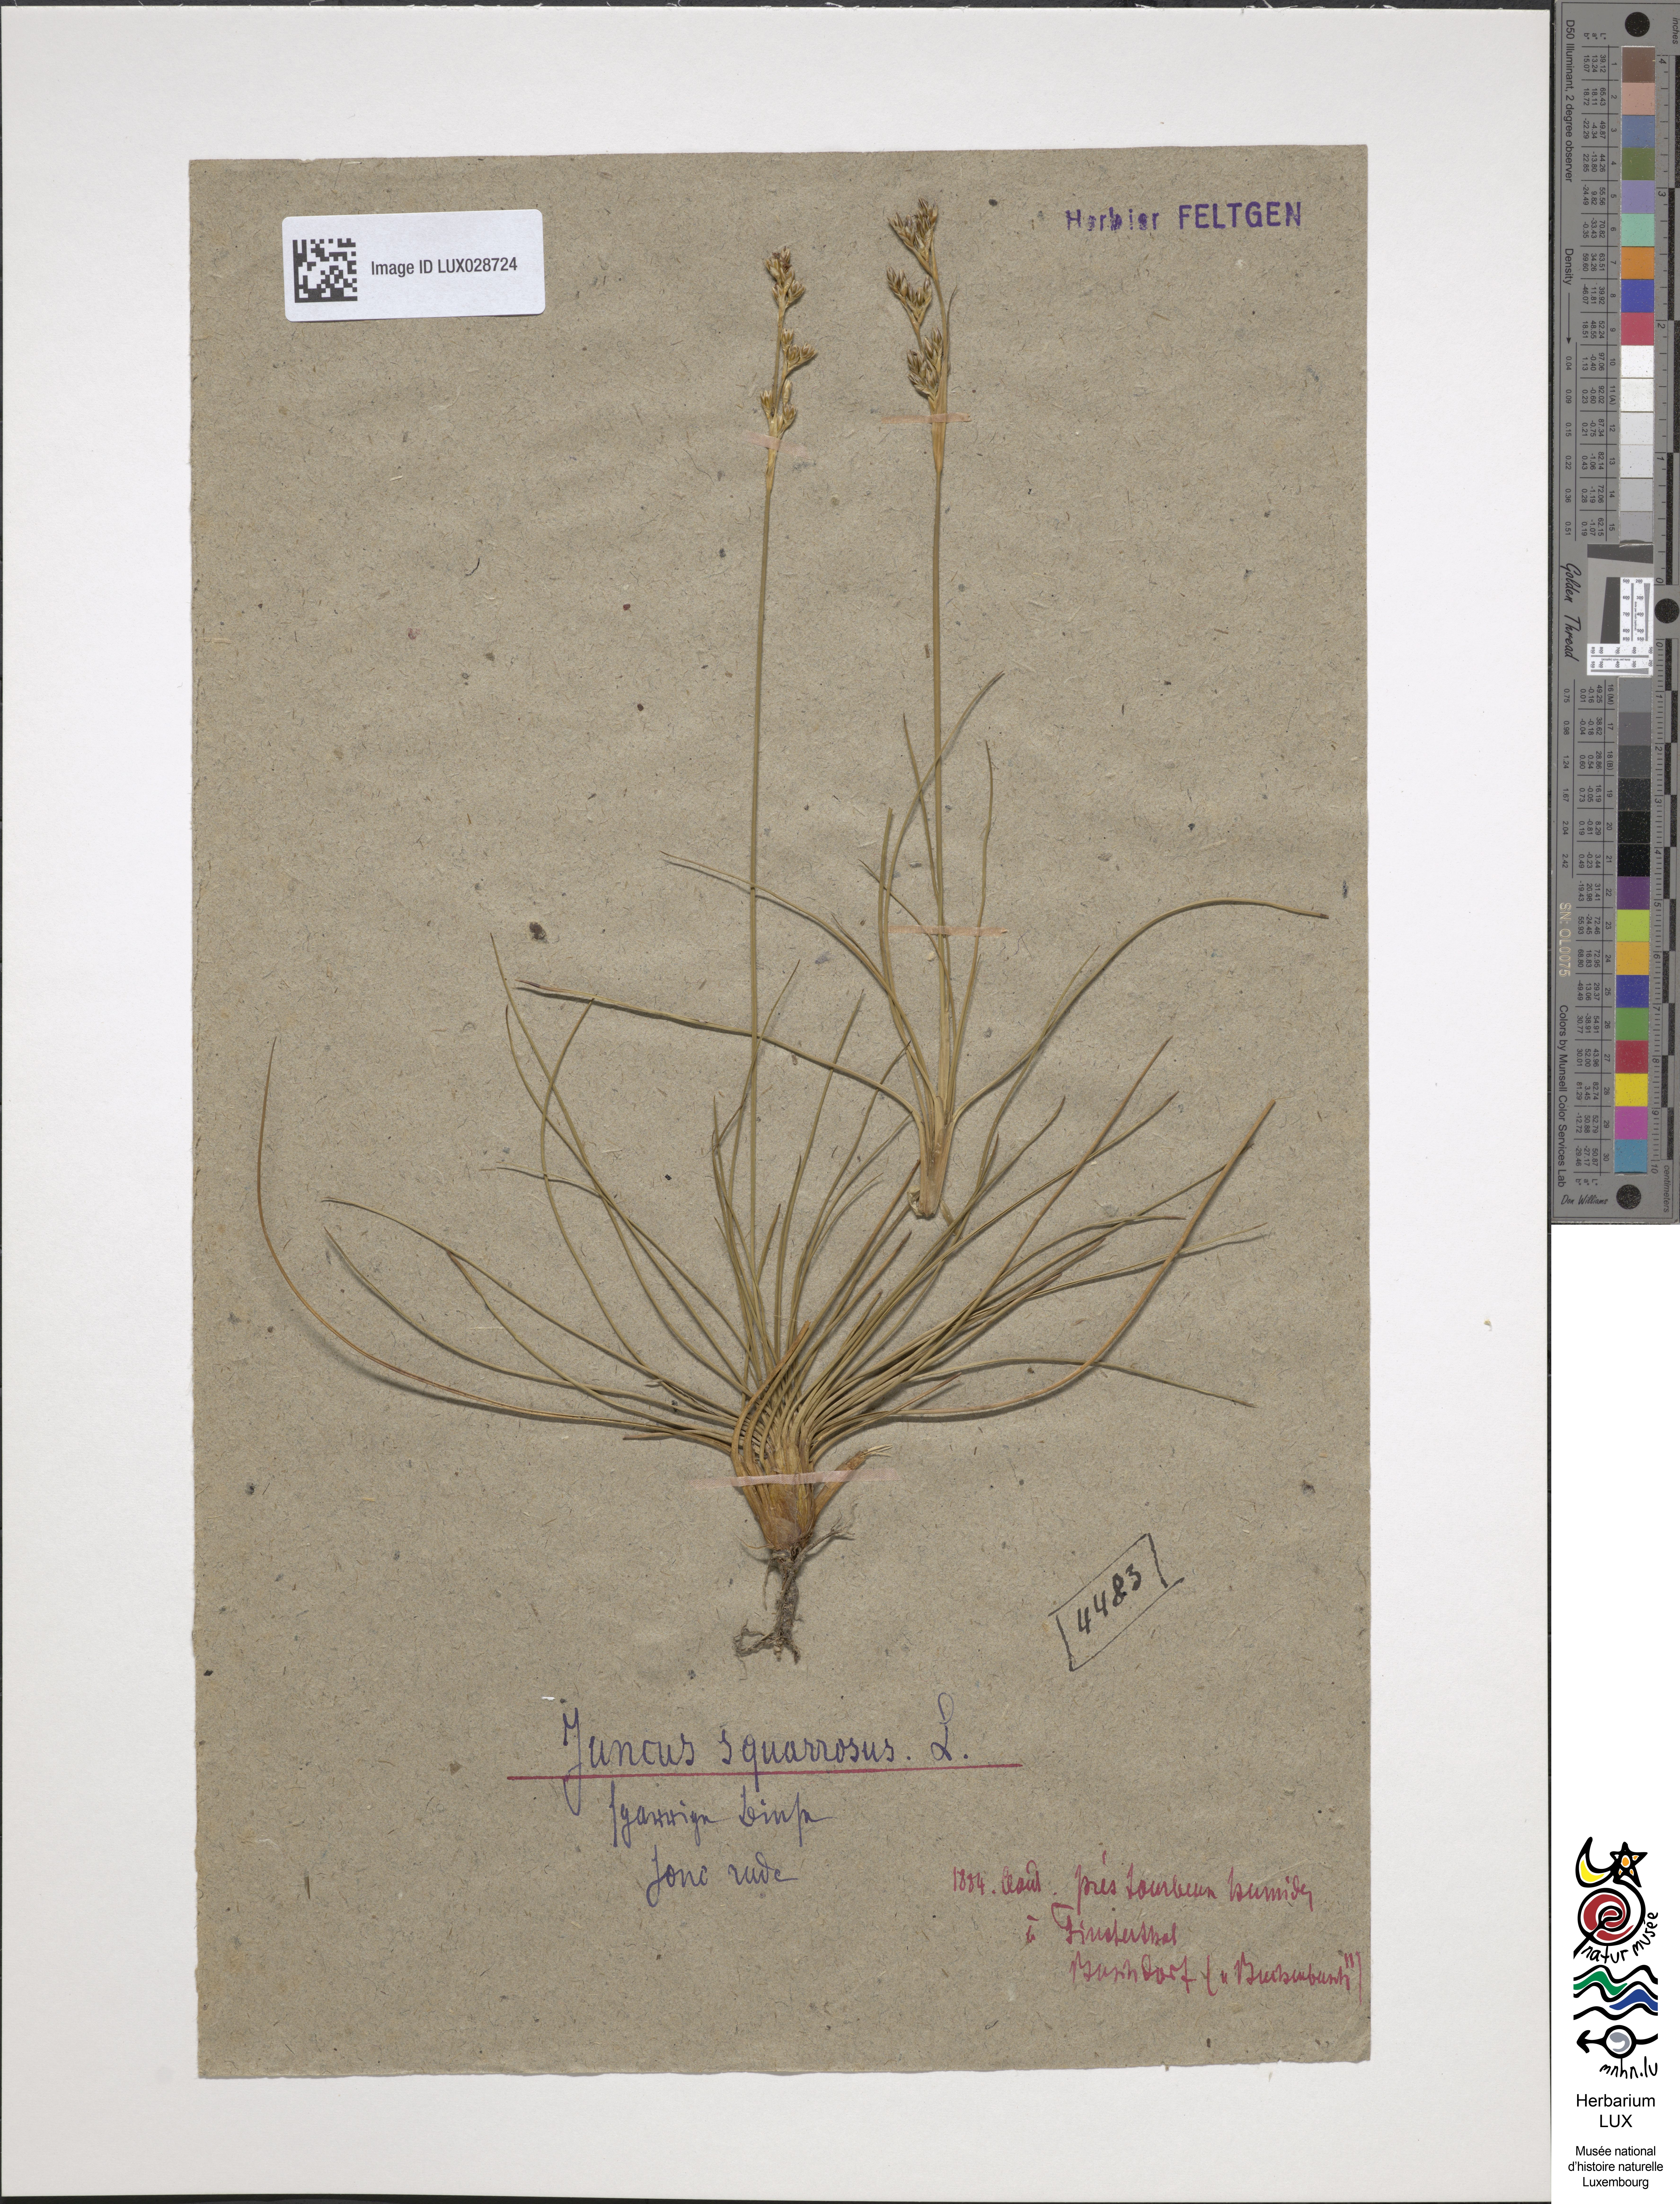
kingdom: Plantae
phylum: Tracheophyta
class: Liliopsida
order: Poales
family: Juncaceae
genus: Juncus
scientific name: Juncus squarrosus
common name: Heath rush
